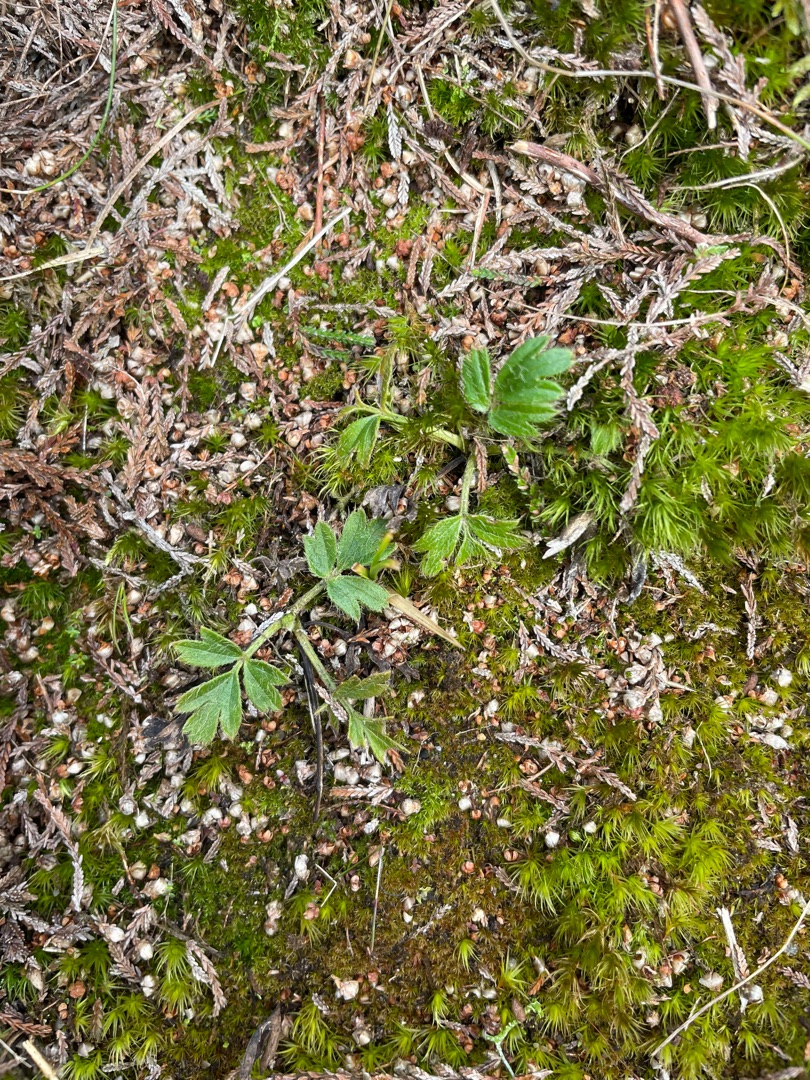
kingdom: Plantae
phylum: Tracheophyta
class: Magnoliopsida
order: Ranunculales
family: Ranunculaceae
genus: Pulsatilla
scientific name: Pulsatilla vernalis
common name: Vår-kobjælde
